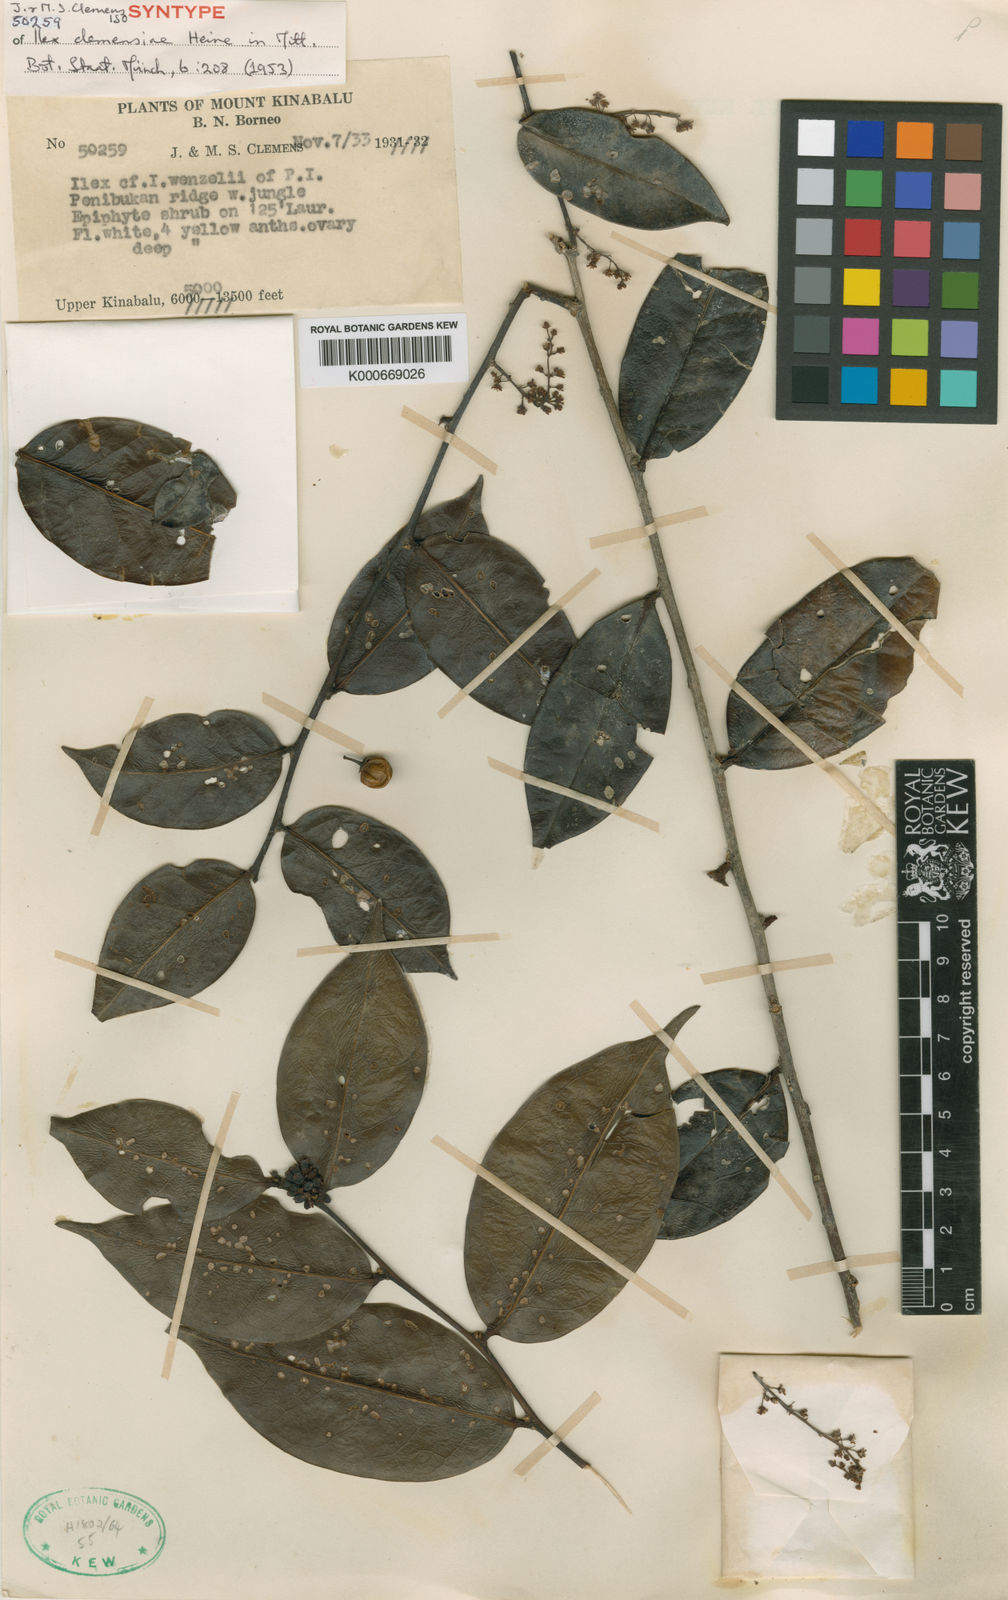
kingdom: Plantae
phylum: Tracheophyta
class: Magnoliopsida
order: Aquifoliales
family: Aquifoliaceae
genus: Ilex
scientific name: Ilex clemensiae
